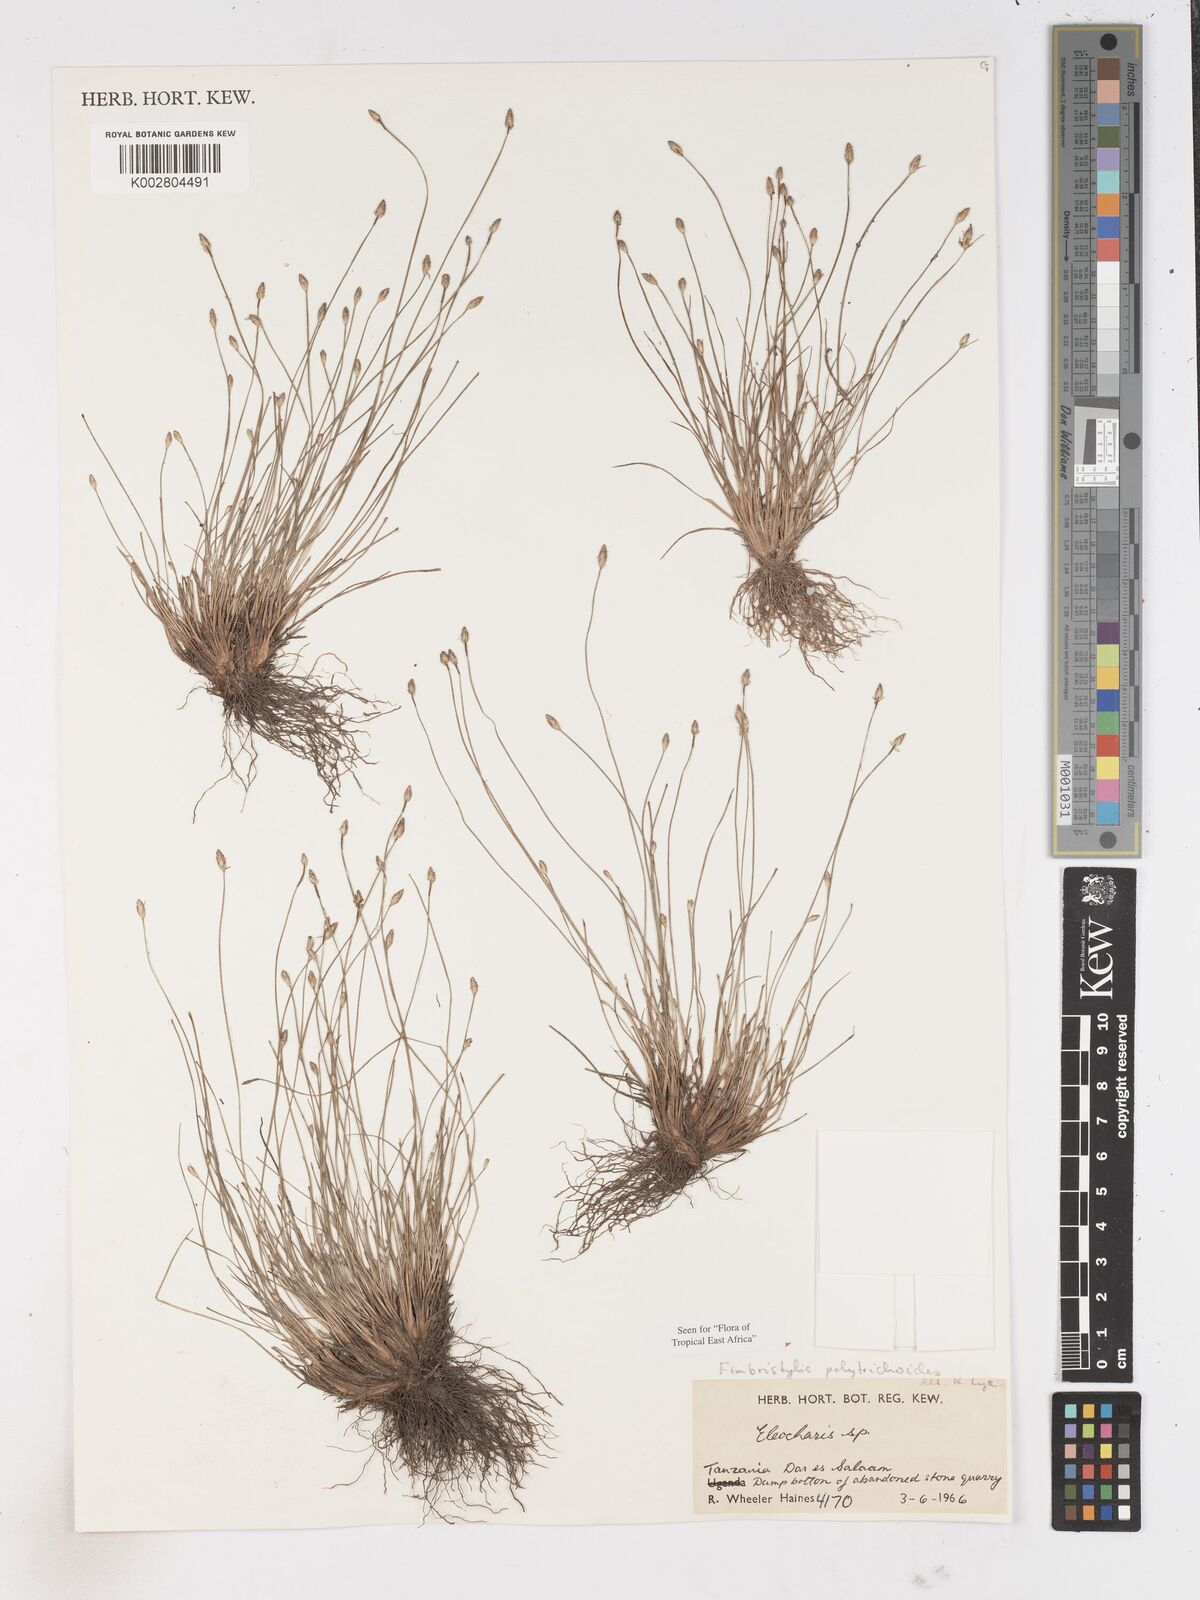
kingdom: Plantae
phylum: Tracheophyta
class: Liliopsida
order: Poales
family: Cyperaceae
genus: Fimbristylis
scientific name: Fimbristylis polytrichoides
